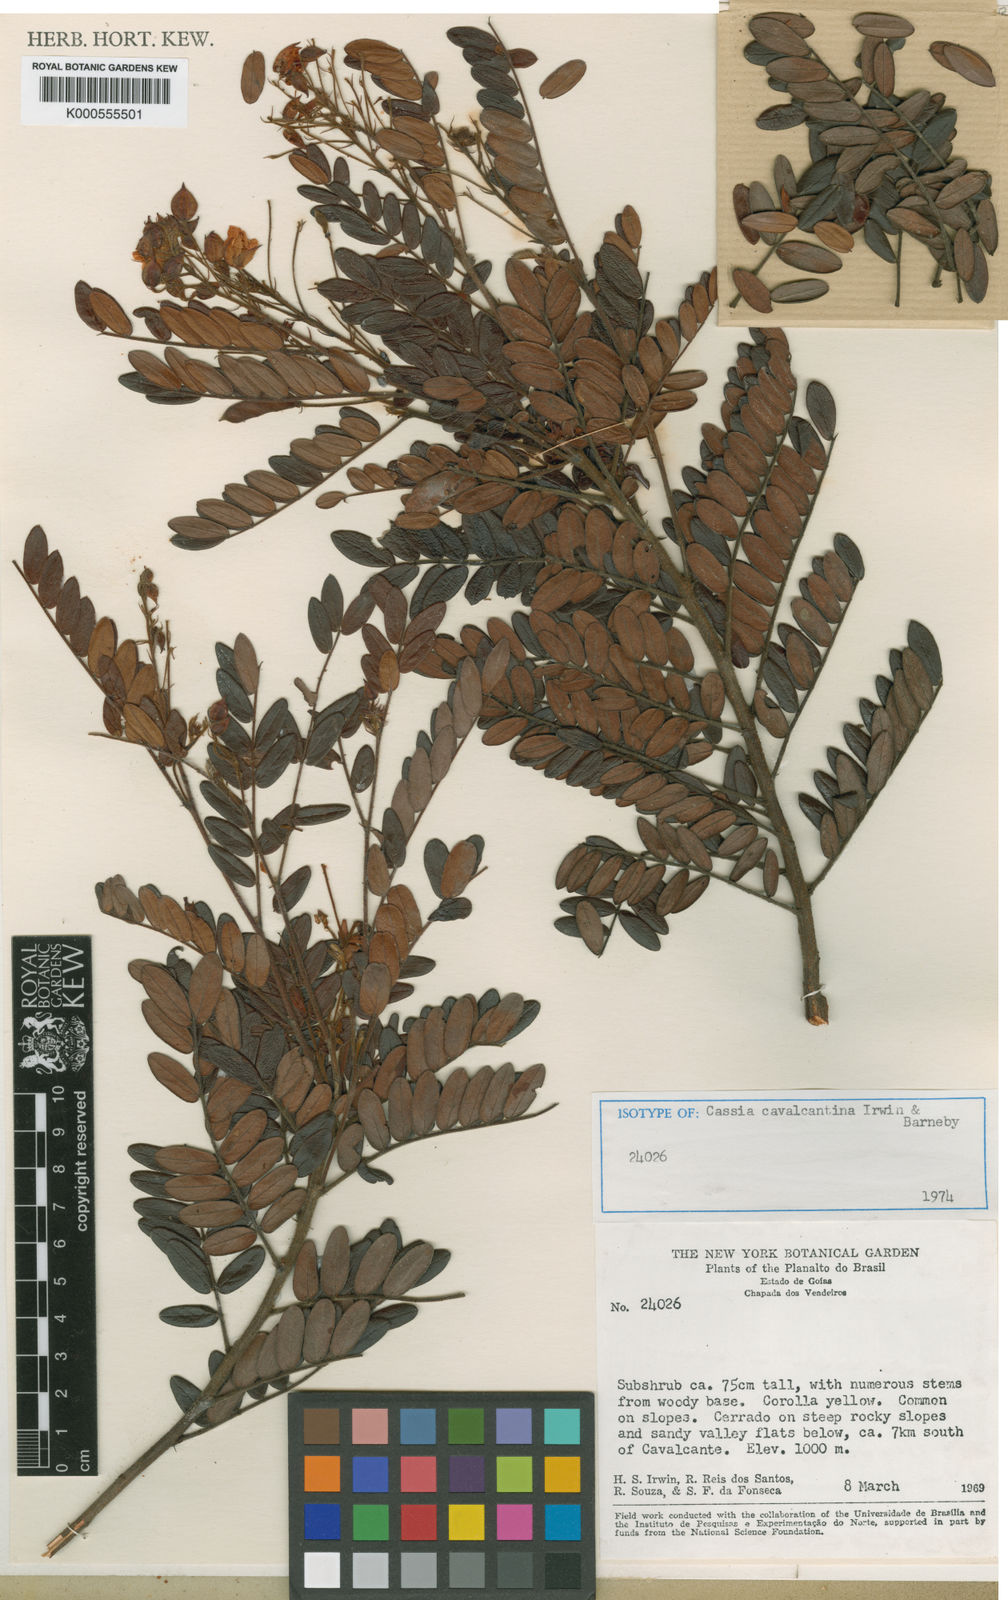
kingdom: Plantae
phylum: Tracheophyta
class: Magnoliopsida
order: Fabales
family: Fabaceae
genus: Chamaecrista
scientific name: Chamaecrista cavalcantina
